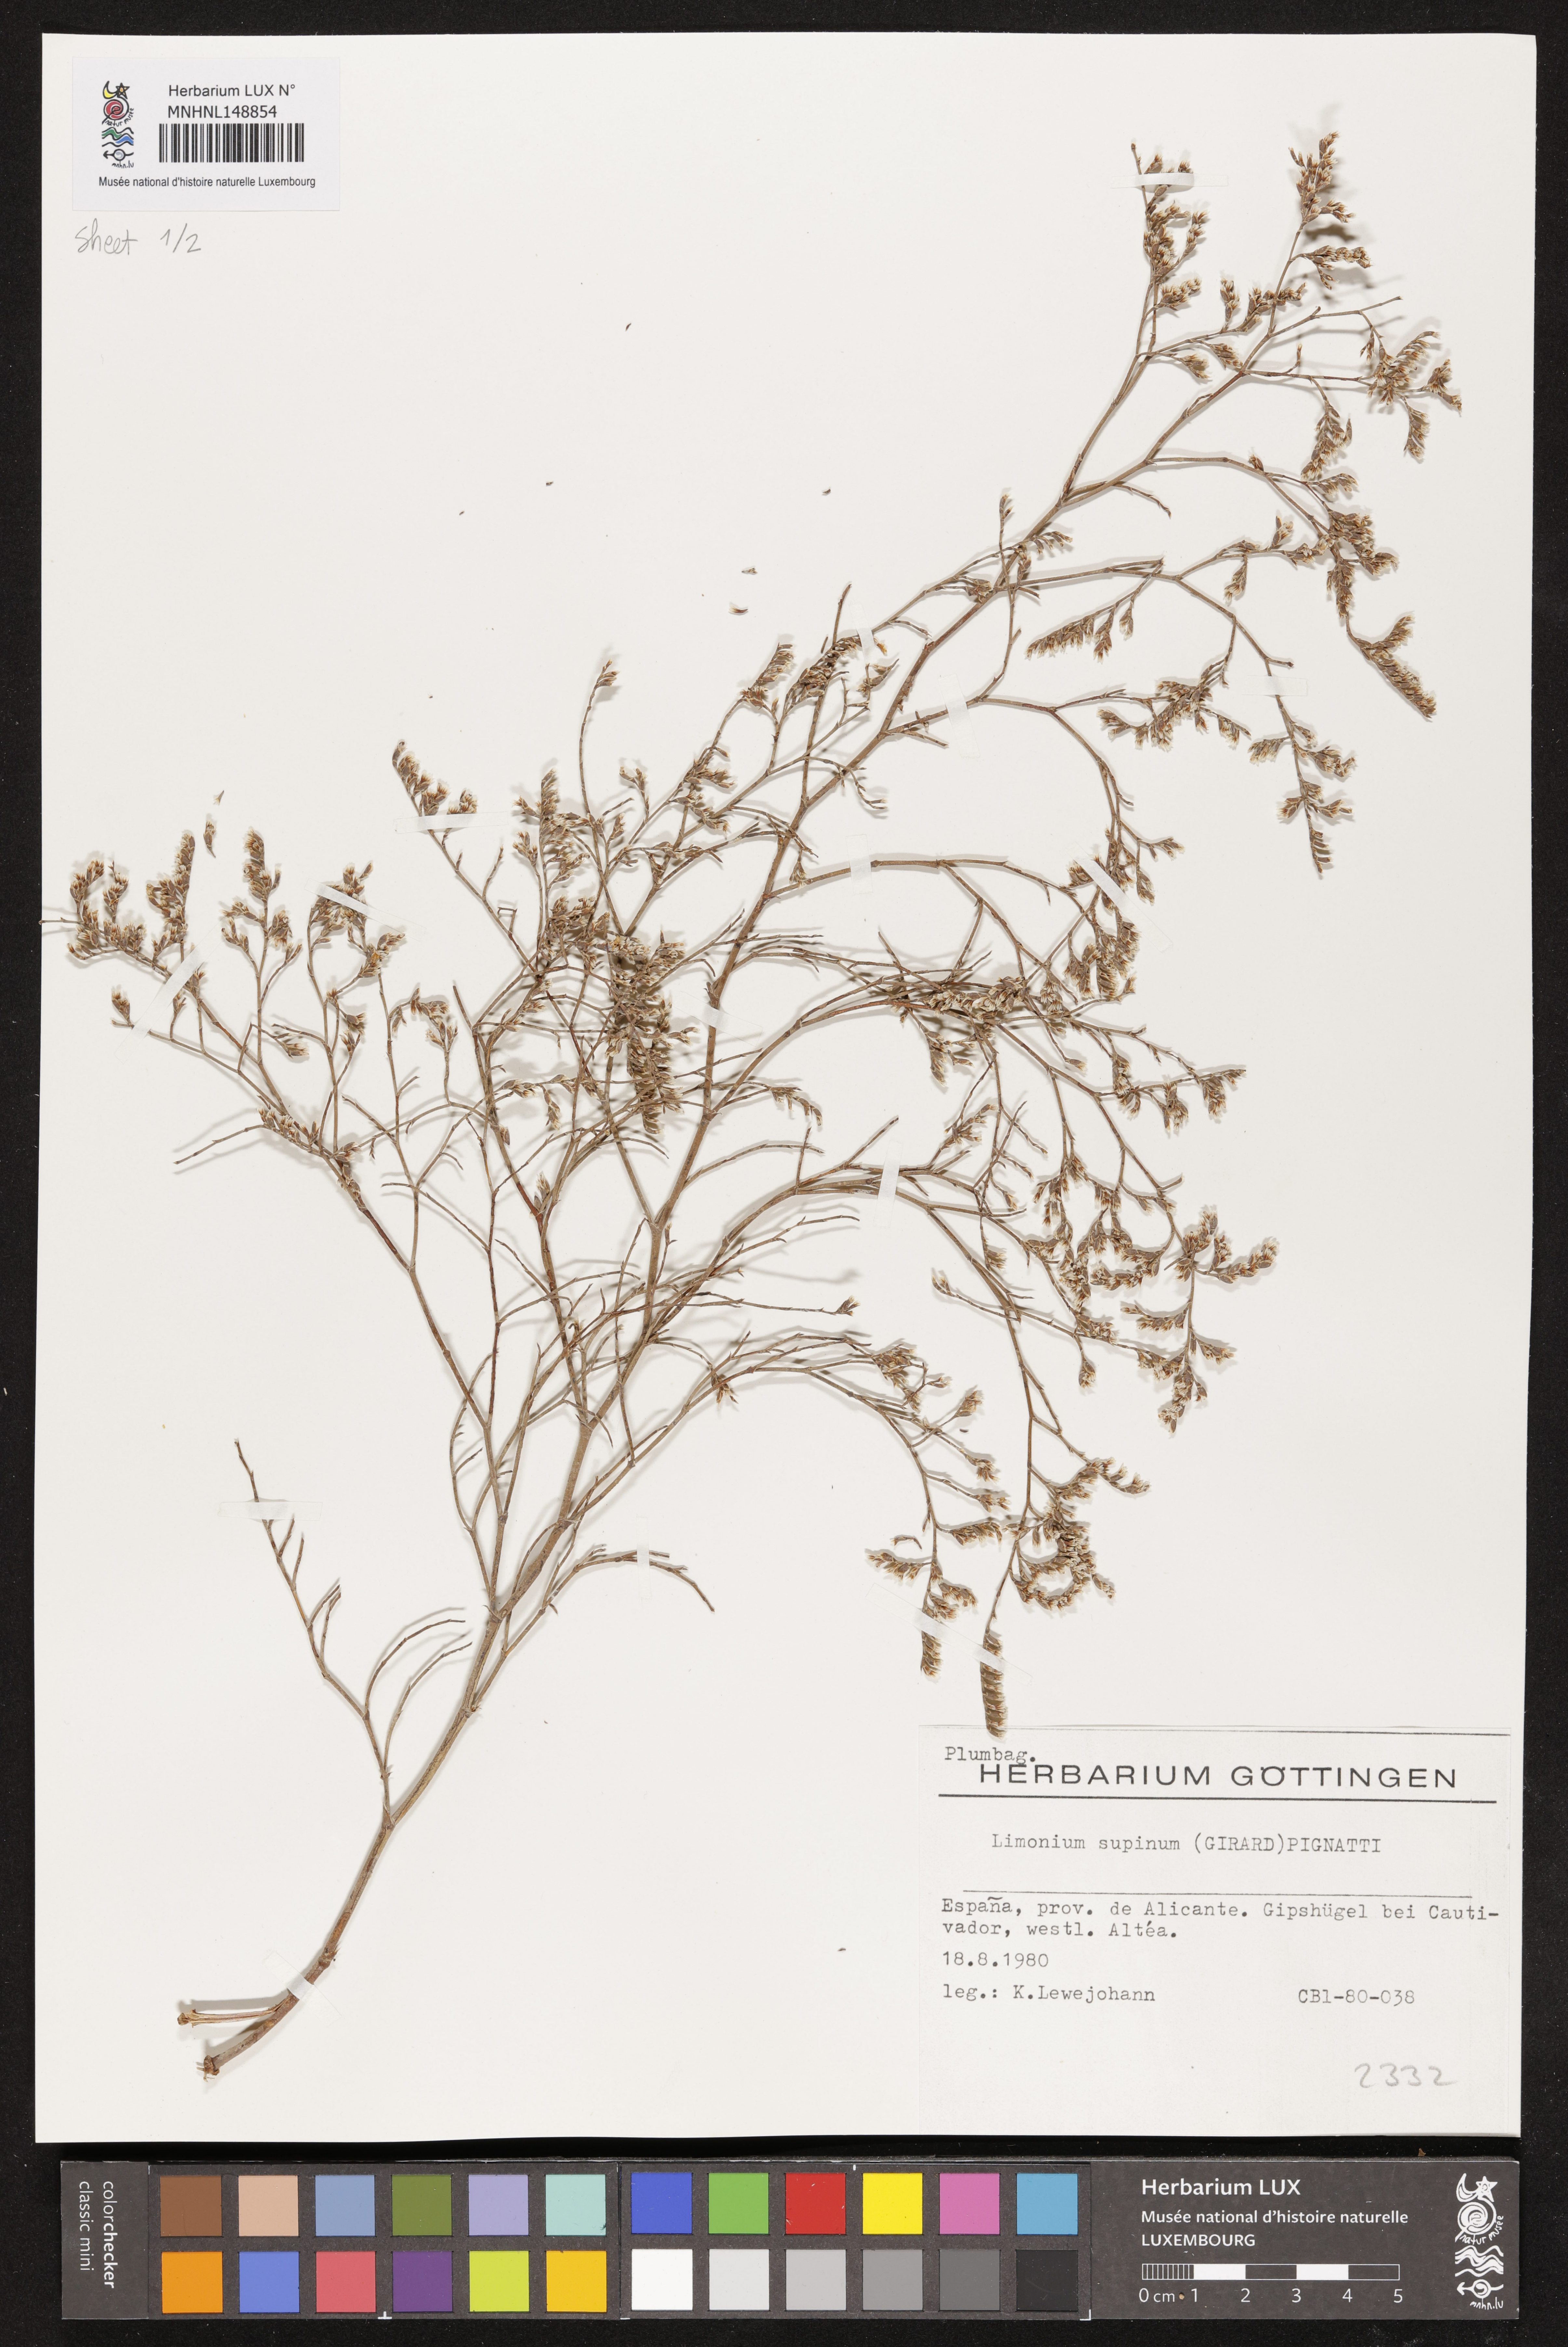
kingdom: Plantae
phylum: Tracheophyta
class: Magnoliopsida
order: Caryophyllales
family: Plumbaginaceae
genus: Limonium
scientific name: Limonium supinum
